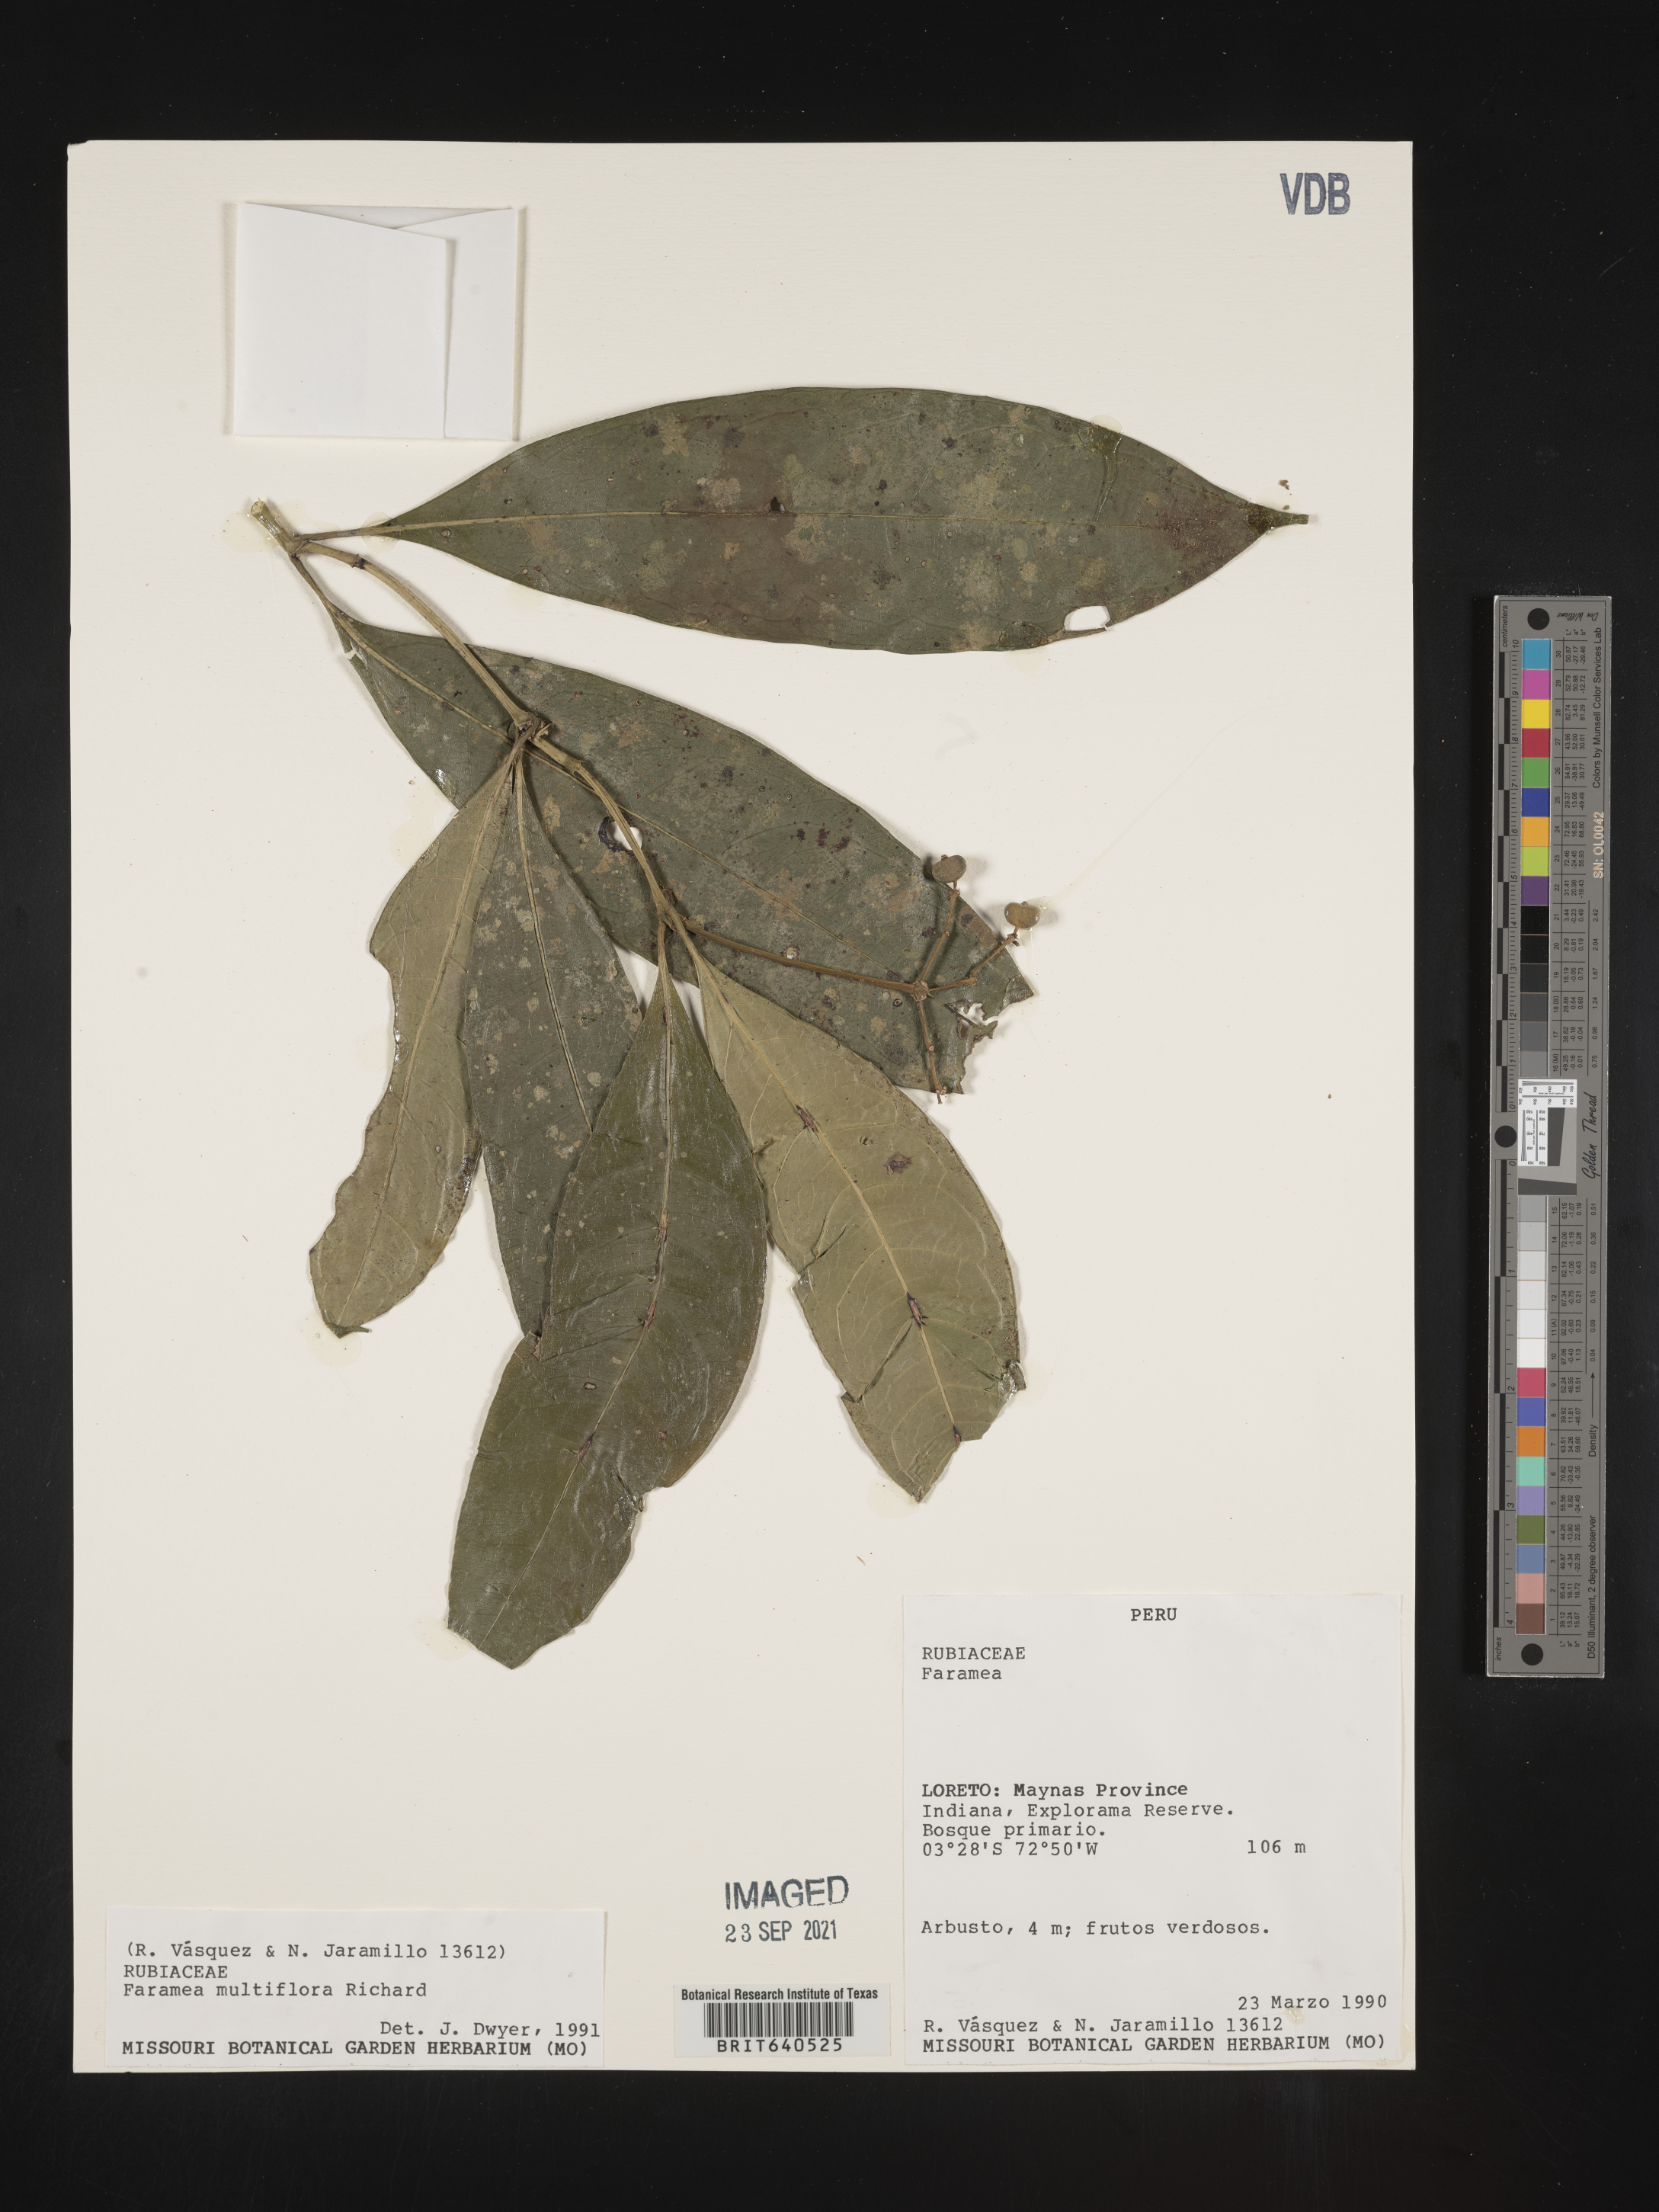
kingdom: Plantae
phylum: Tracheophyta
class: Magnoliopsida
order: Gentianales
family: Rubiaceae
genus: Faramea
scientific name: Faramea
